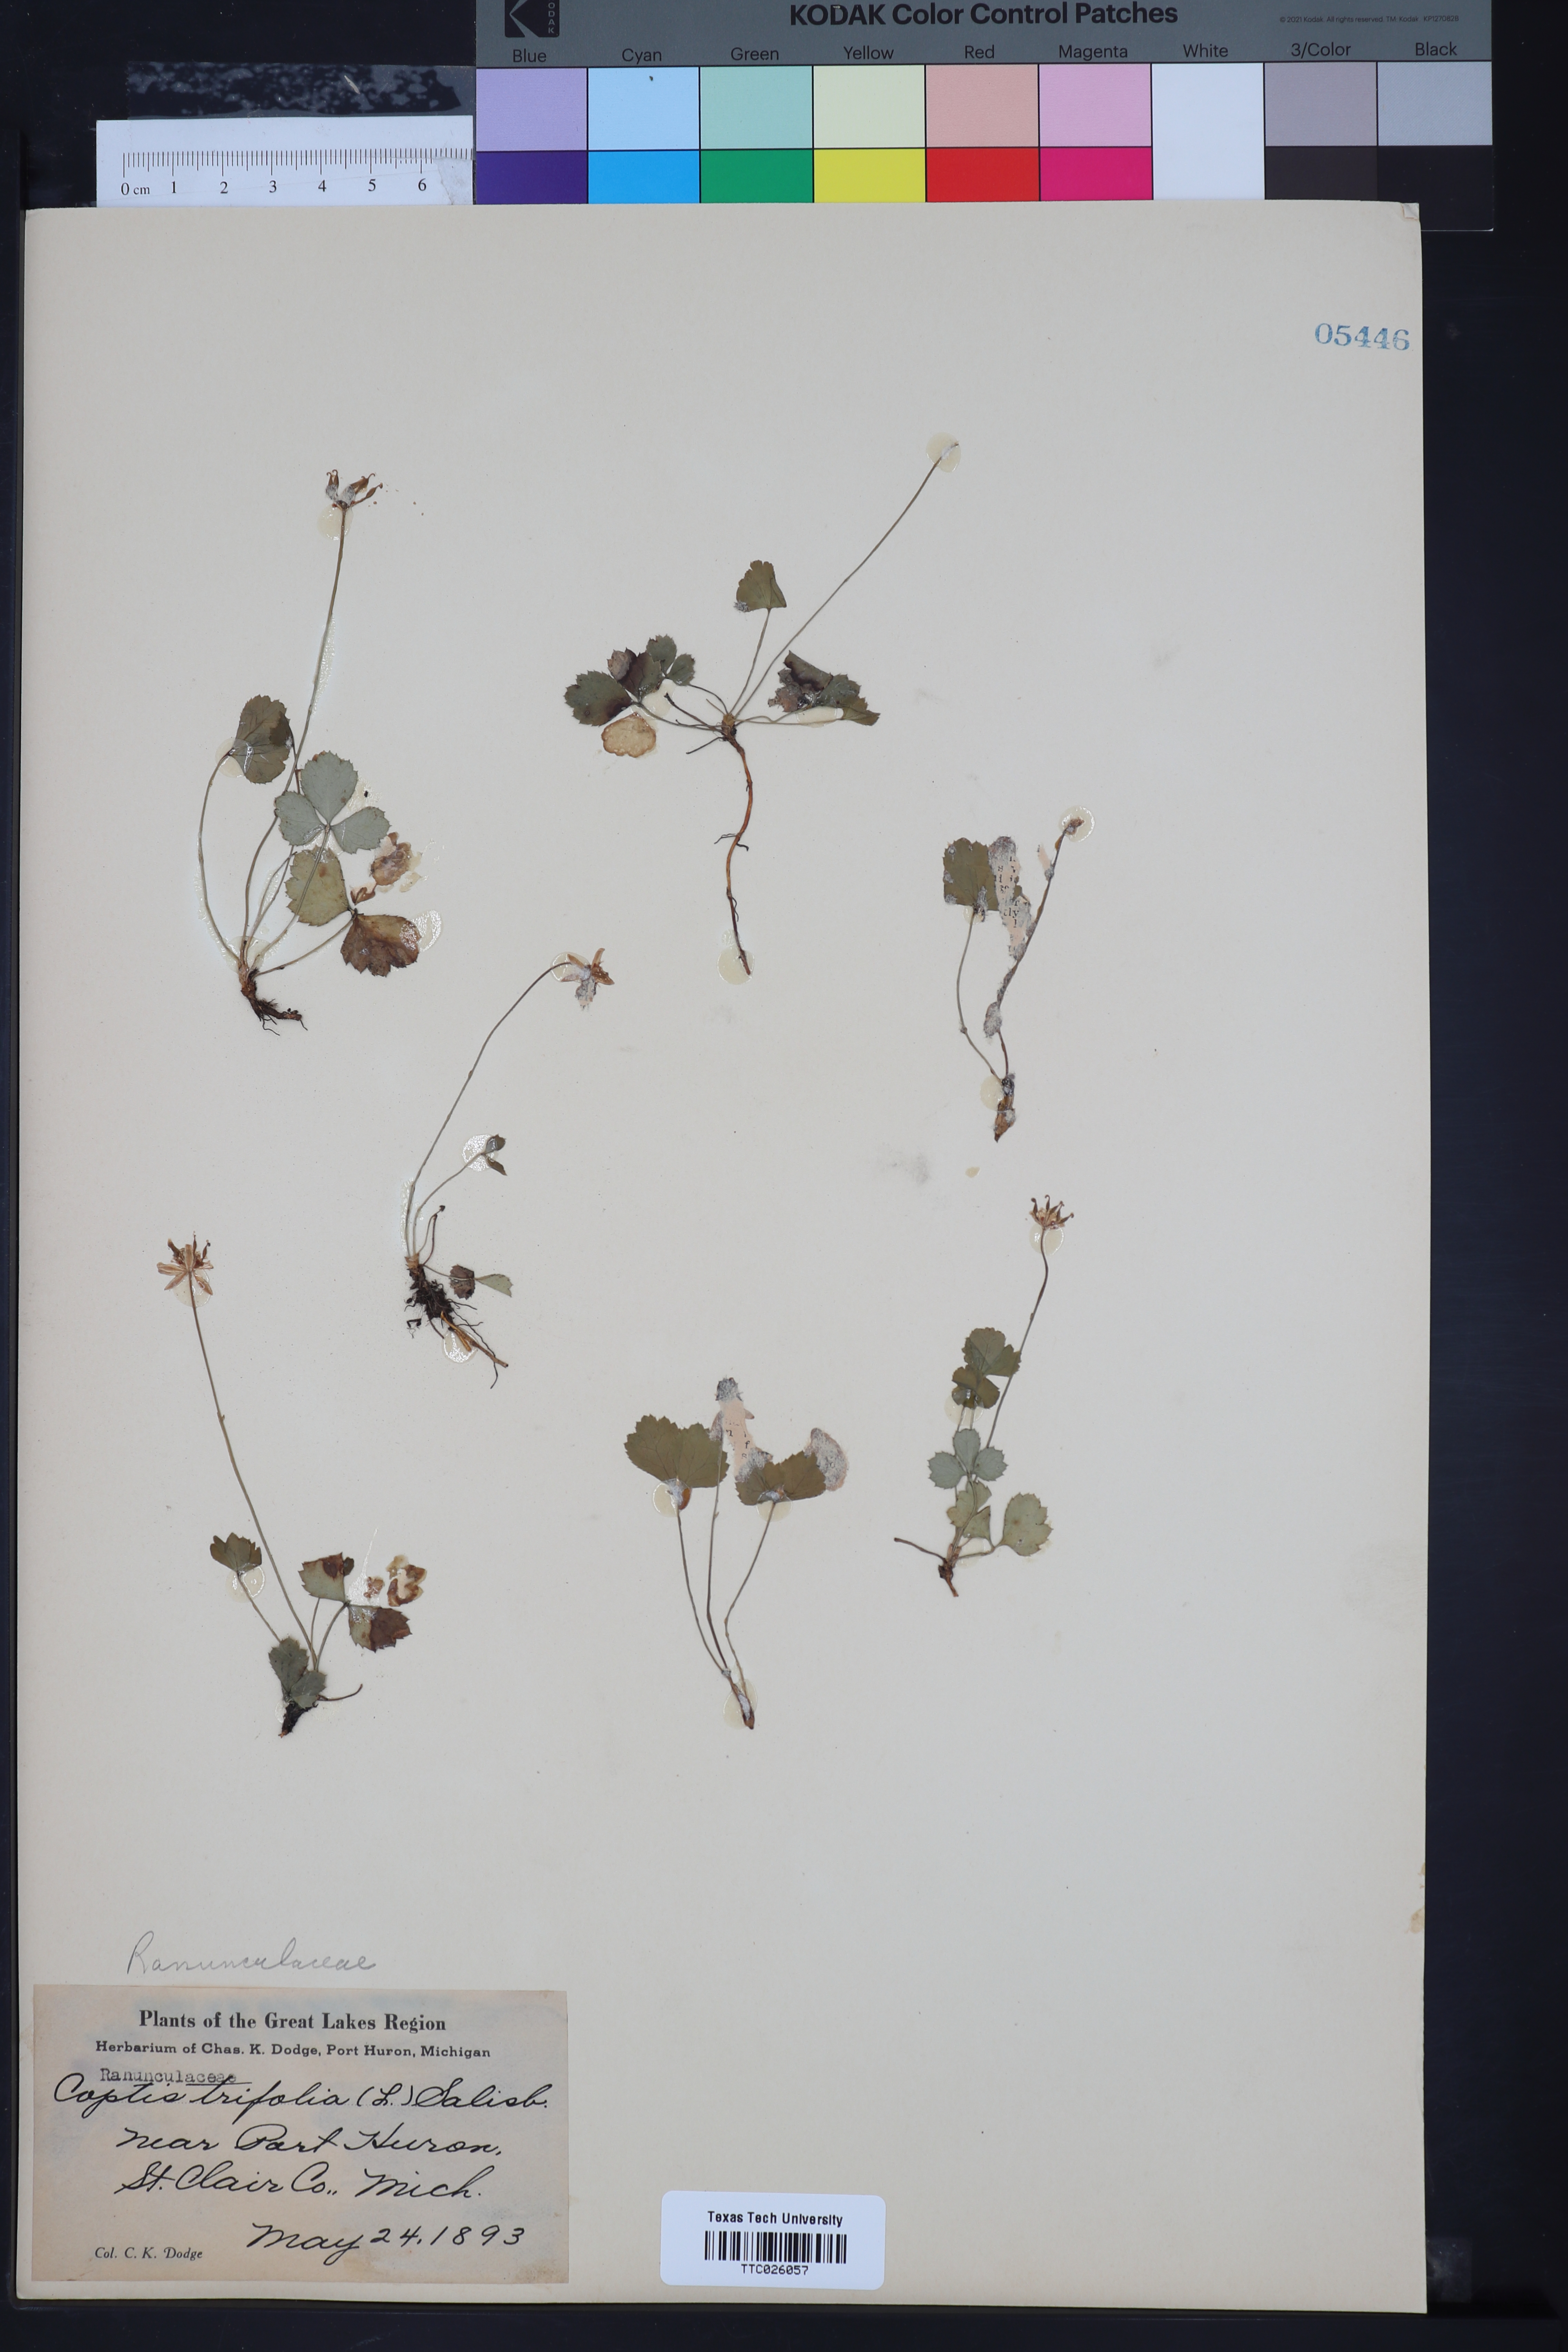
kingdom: Plantae
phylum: Tracheophyta
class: Magnoliopsida
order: Ranunculales
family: Ranunculaceae
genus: Coptis
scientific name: Coptis trifolia
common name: Canker-root
